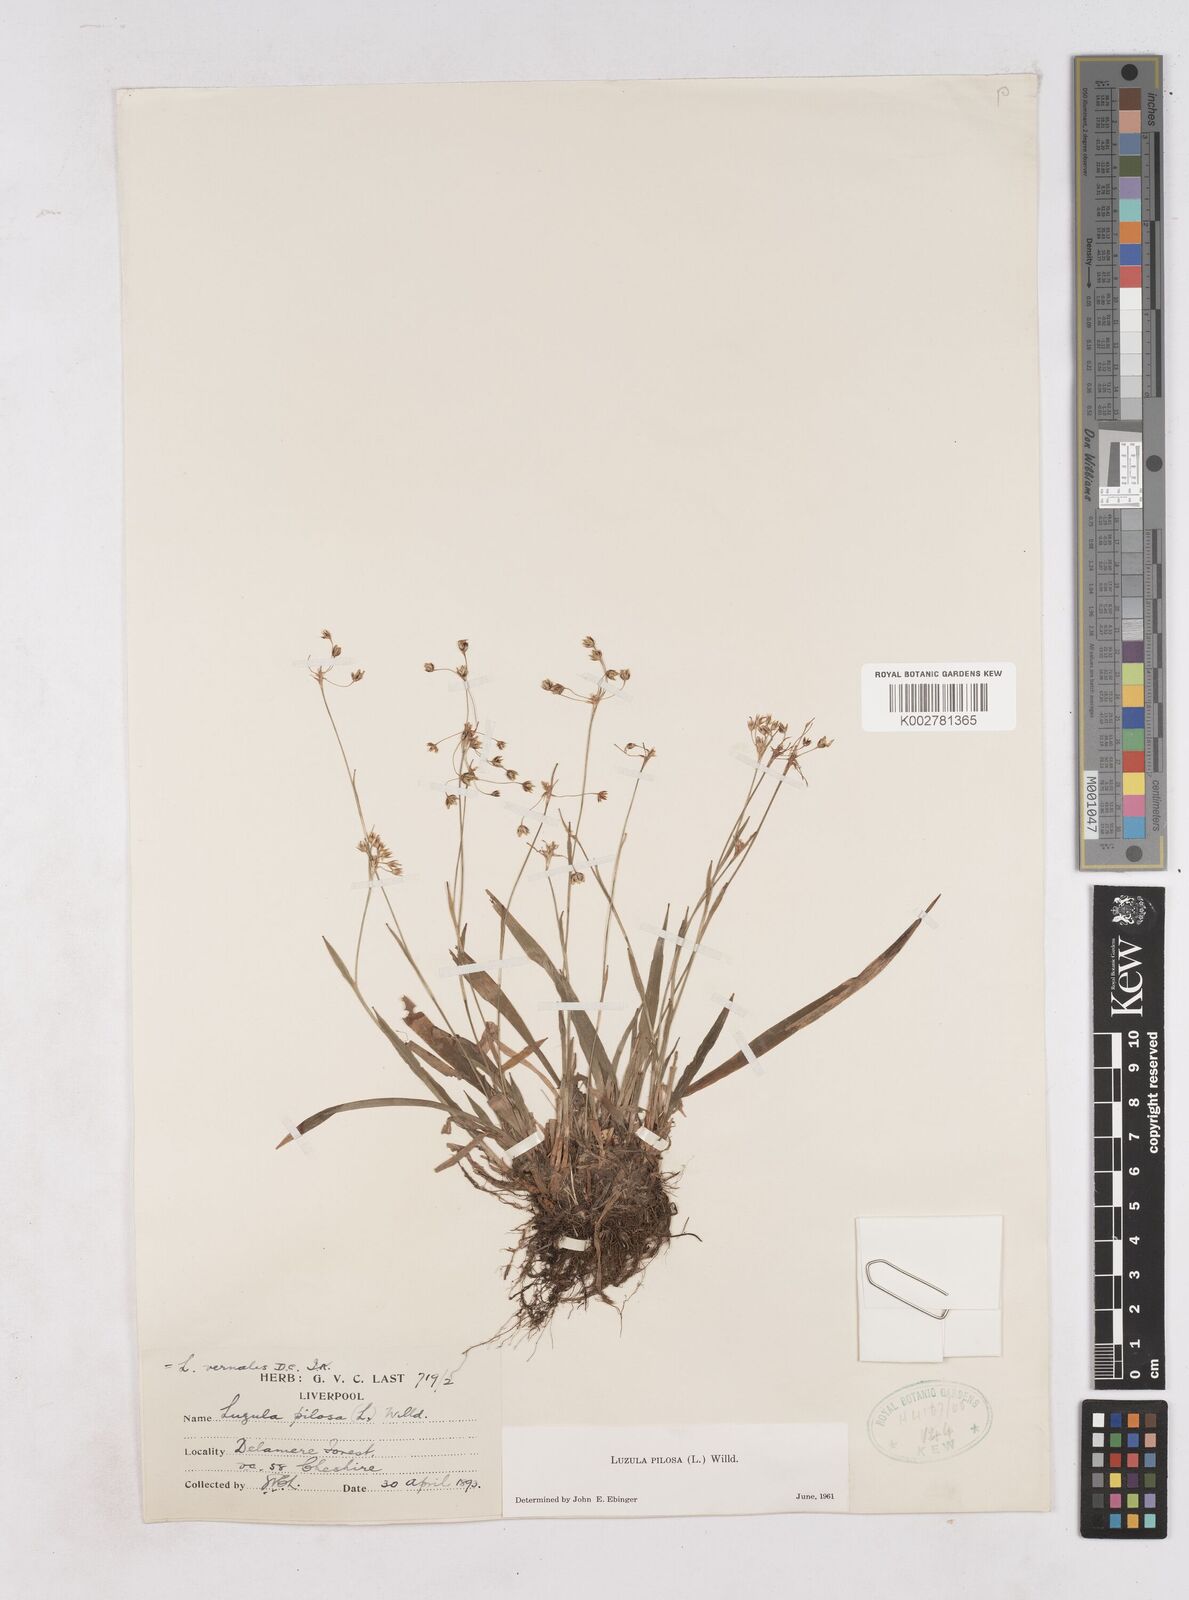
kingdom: Plantae
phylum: Tracheophyta
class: Liliopsida
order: Poales
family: Juncaceae
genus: Luzula
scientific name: Luzula pilosa
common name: Hairy wood-rush
